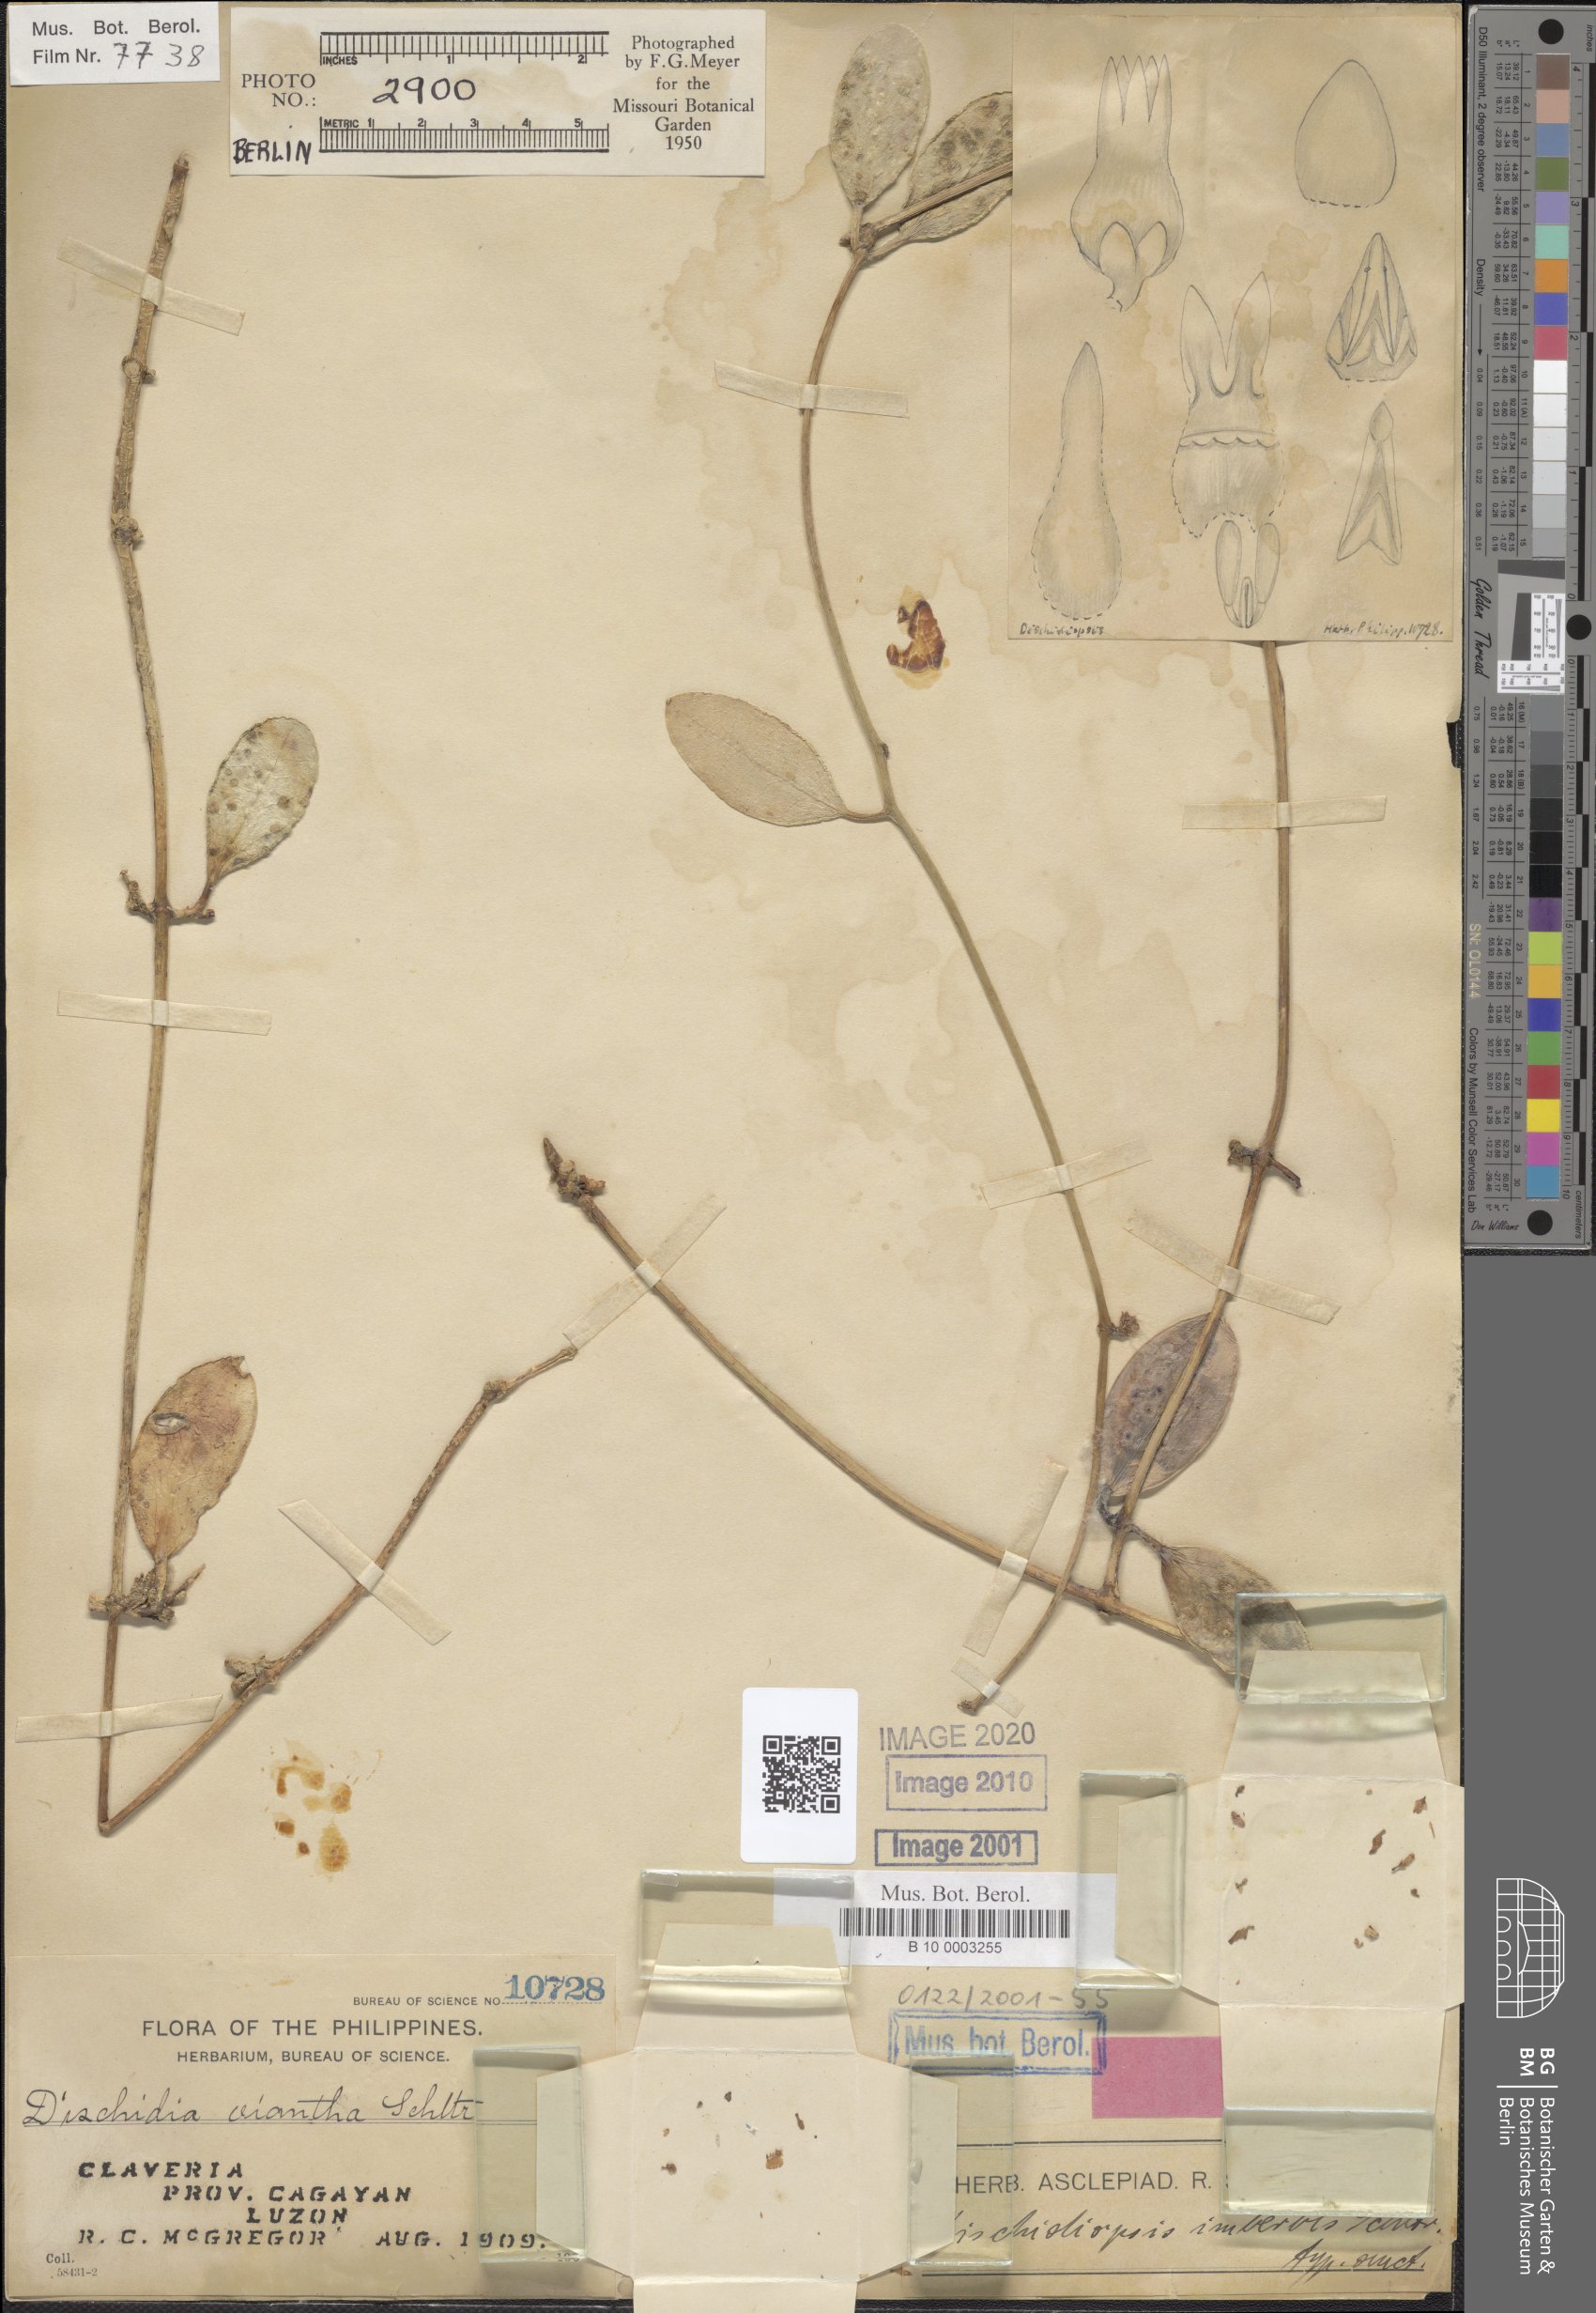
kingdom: Plantae
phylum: Tracheophyta
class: Magnoliopsida
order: Gentianales
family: Apocynaceae
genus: Dischidia
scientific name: Dischidia luzonica
